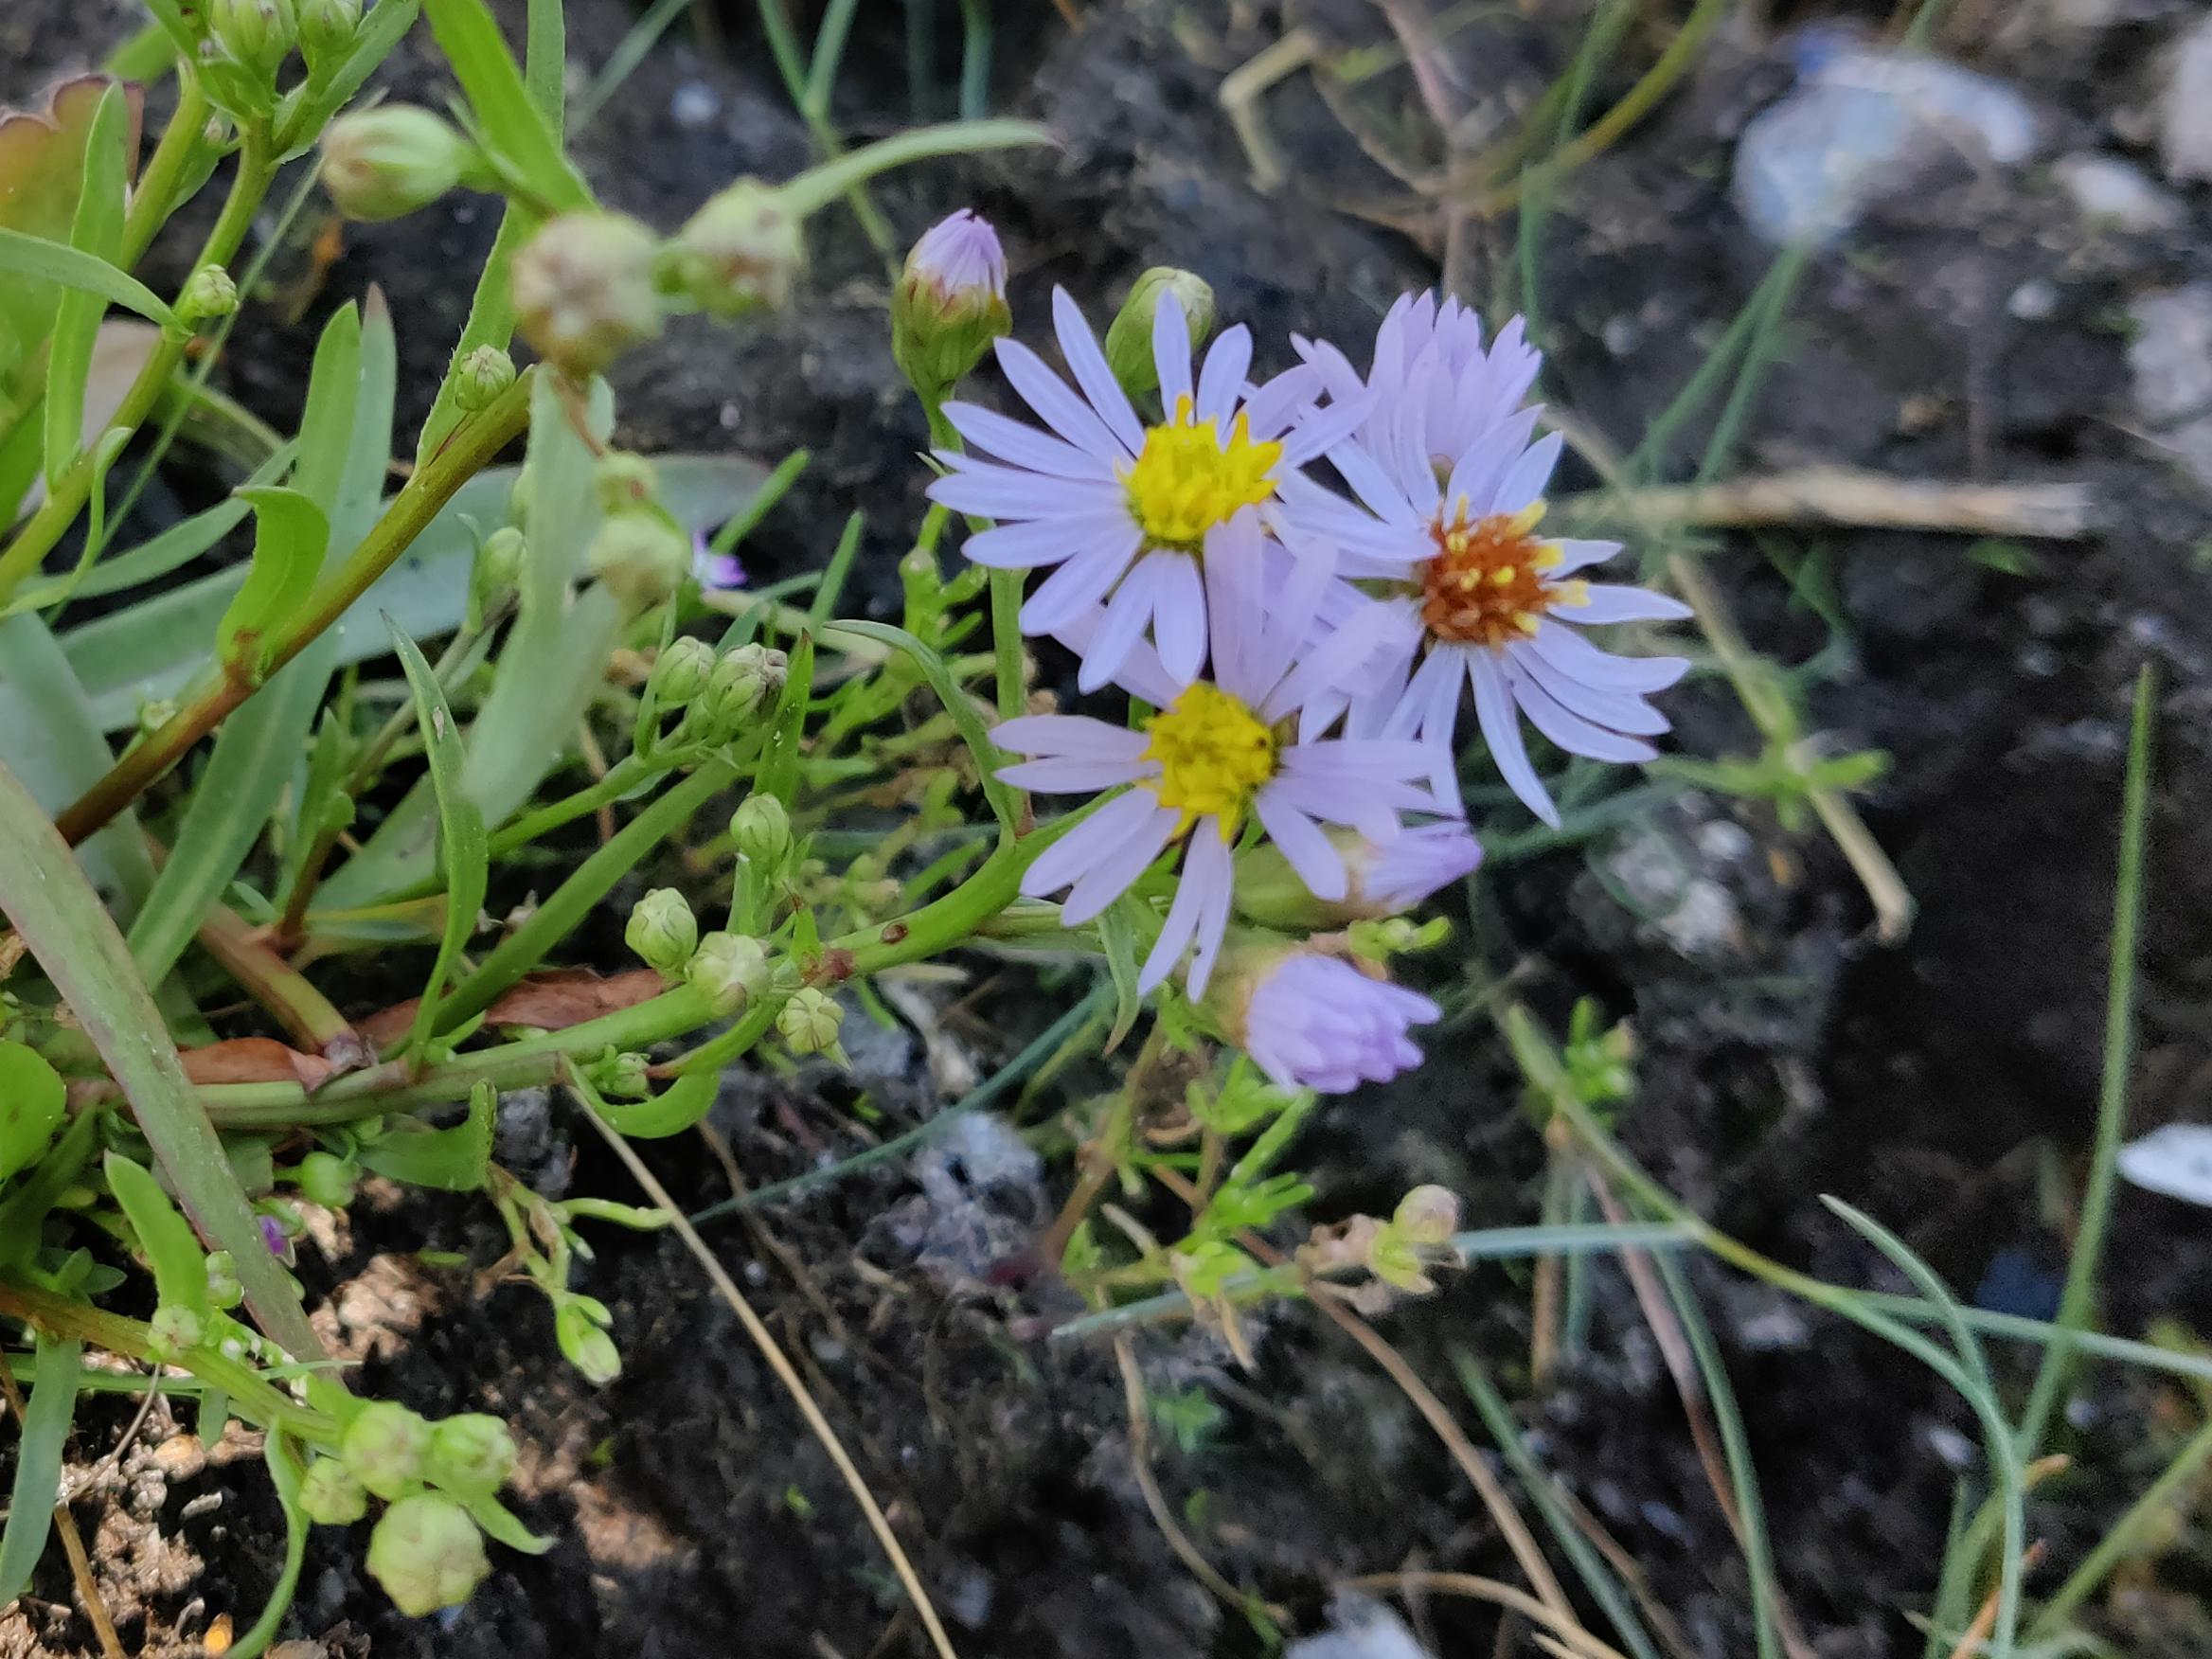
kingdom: Plantae
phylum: Tracheophyta
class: Magnoliopsida
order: Asterales
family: Asteraceae
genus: Tripolium
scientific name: Tripolium pannonicum
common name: Strandasters
